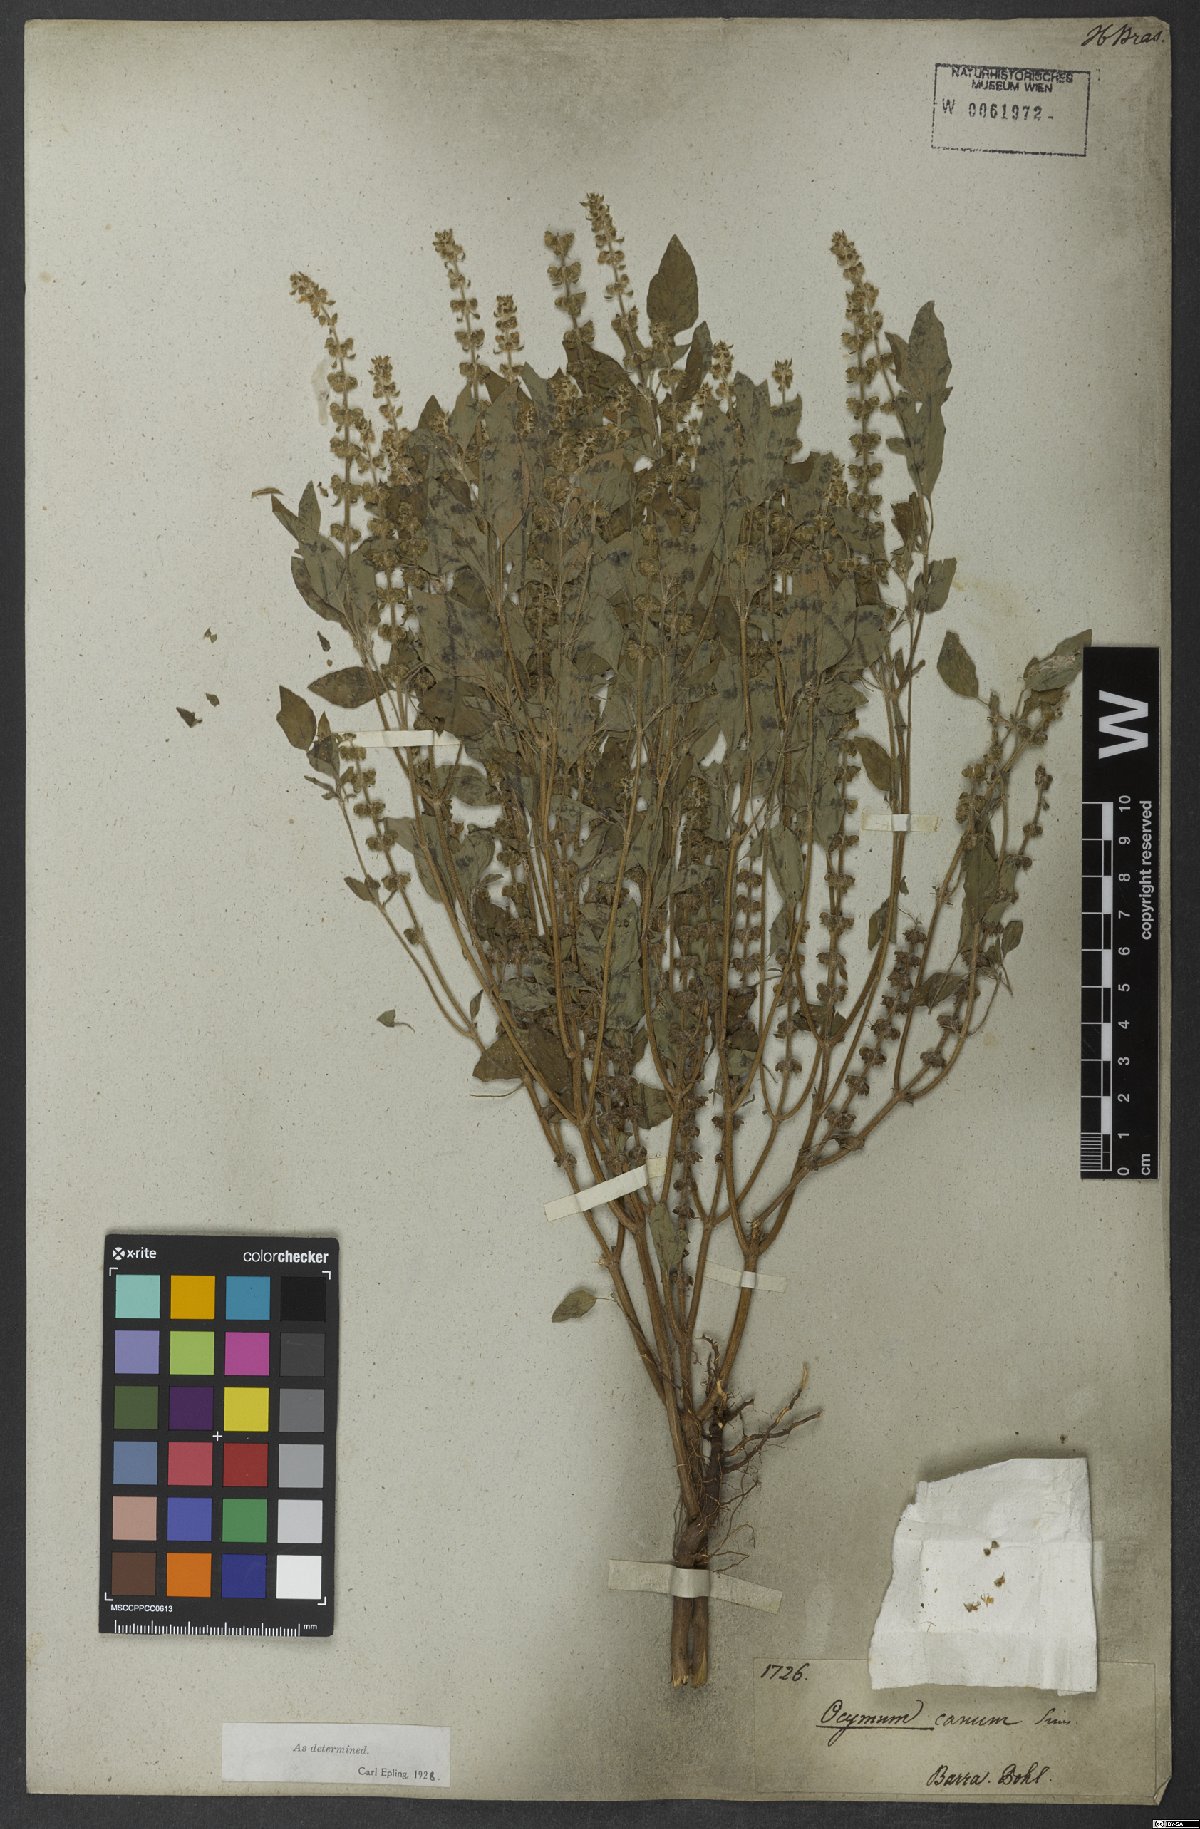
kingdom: Plantae
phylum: Tracheophyta
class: Magnoliopsida
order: Lamiales
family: Lamiaceae
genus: Ocimum
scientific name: Ocimum americanum
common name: American basil
